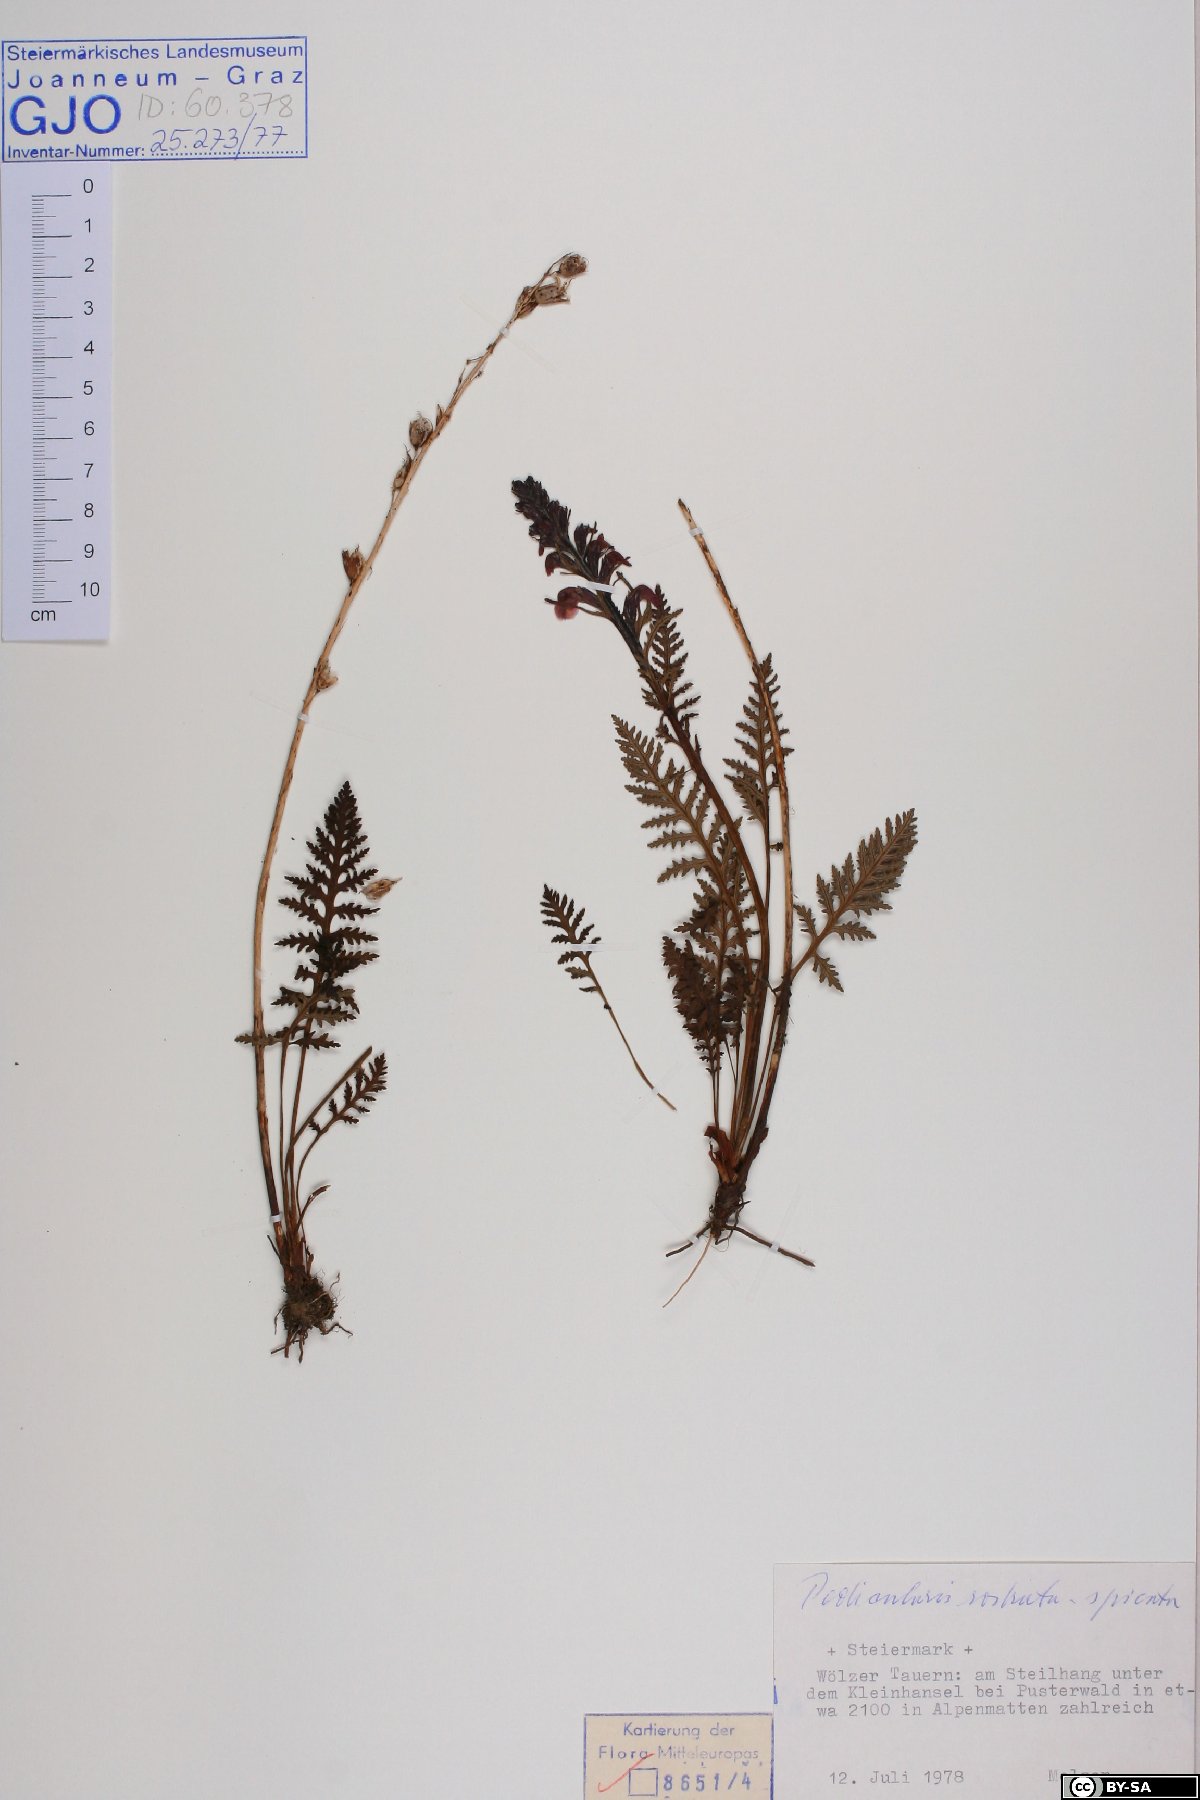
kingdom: Plantae
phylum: Tracheophyta
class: Magnoliopsida
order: Lamiales
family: Orobanchaceae
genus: Pedicularis
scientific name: Pedicularis rostratospicata
